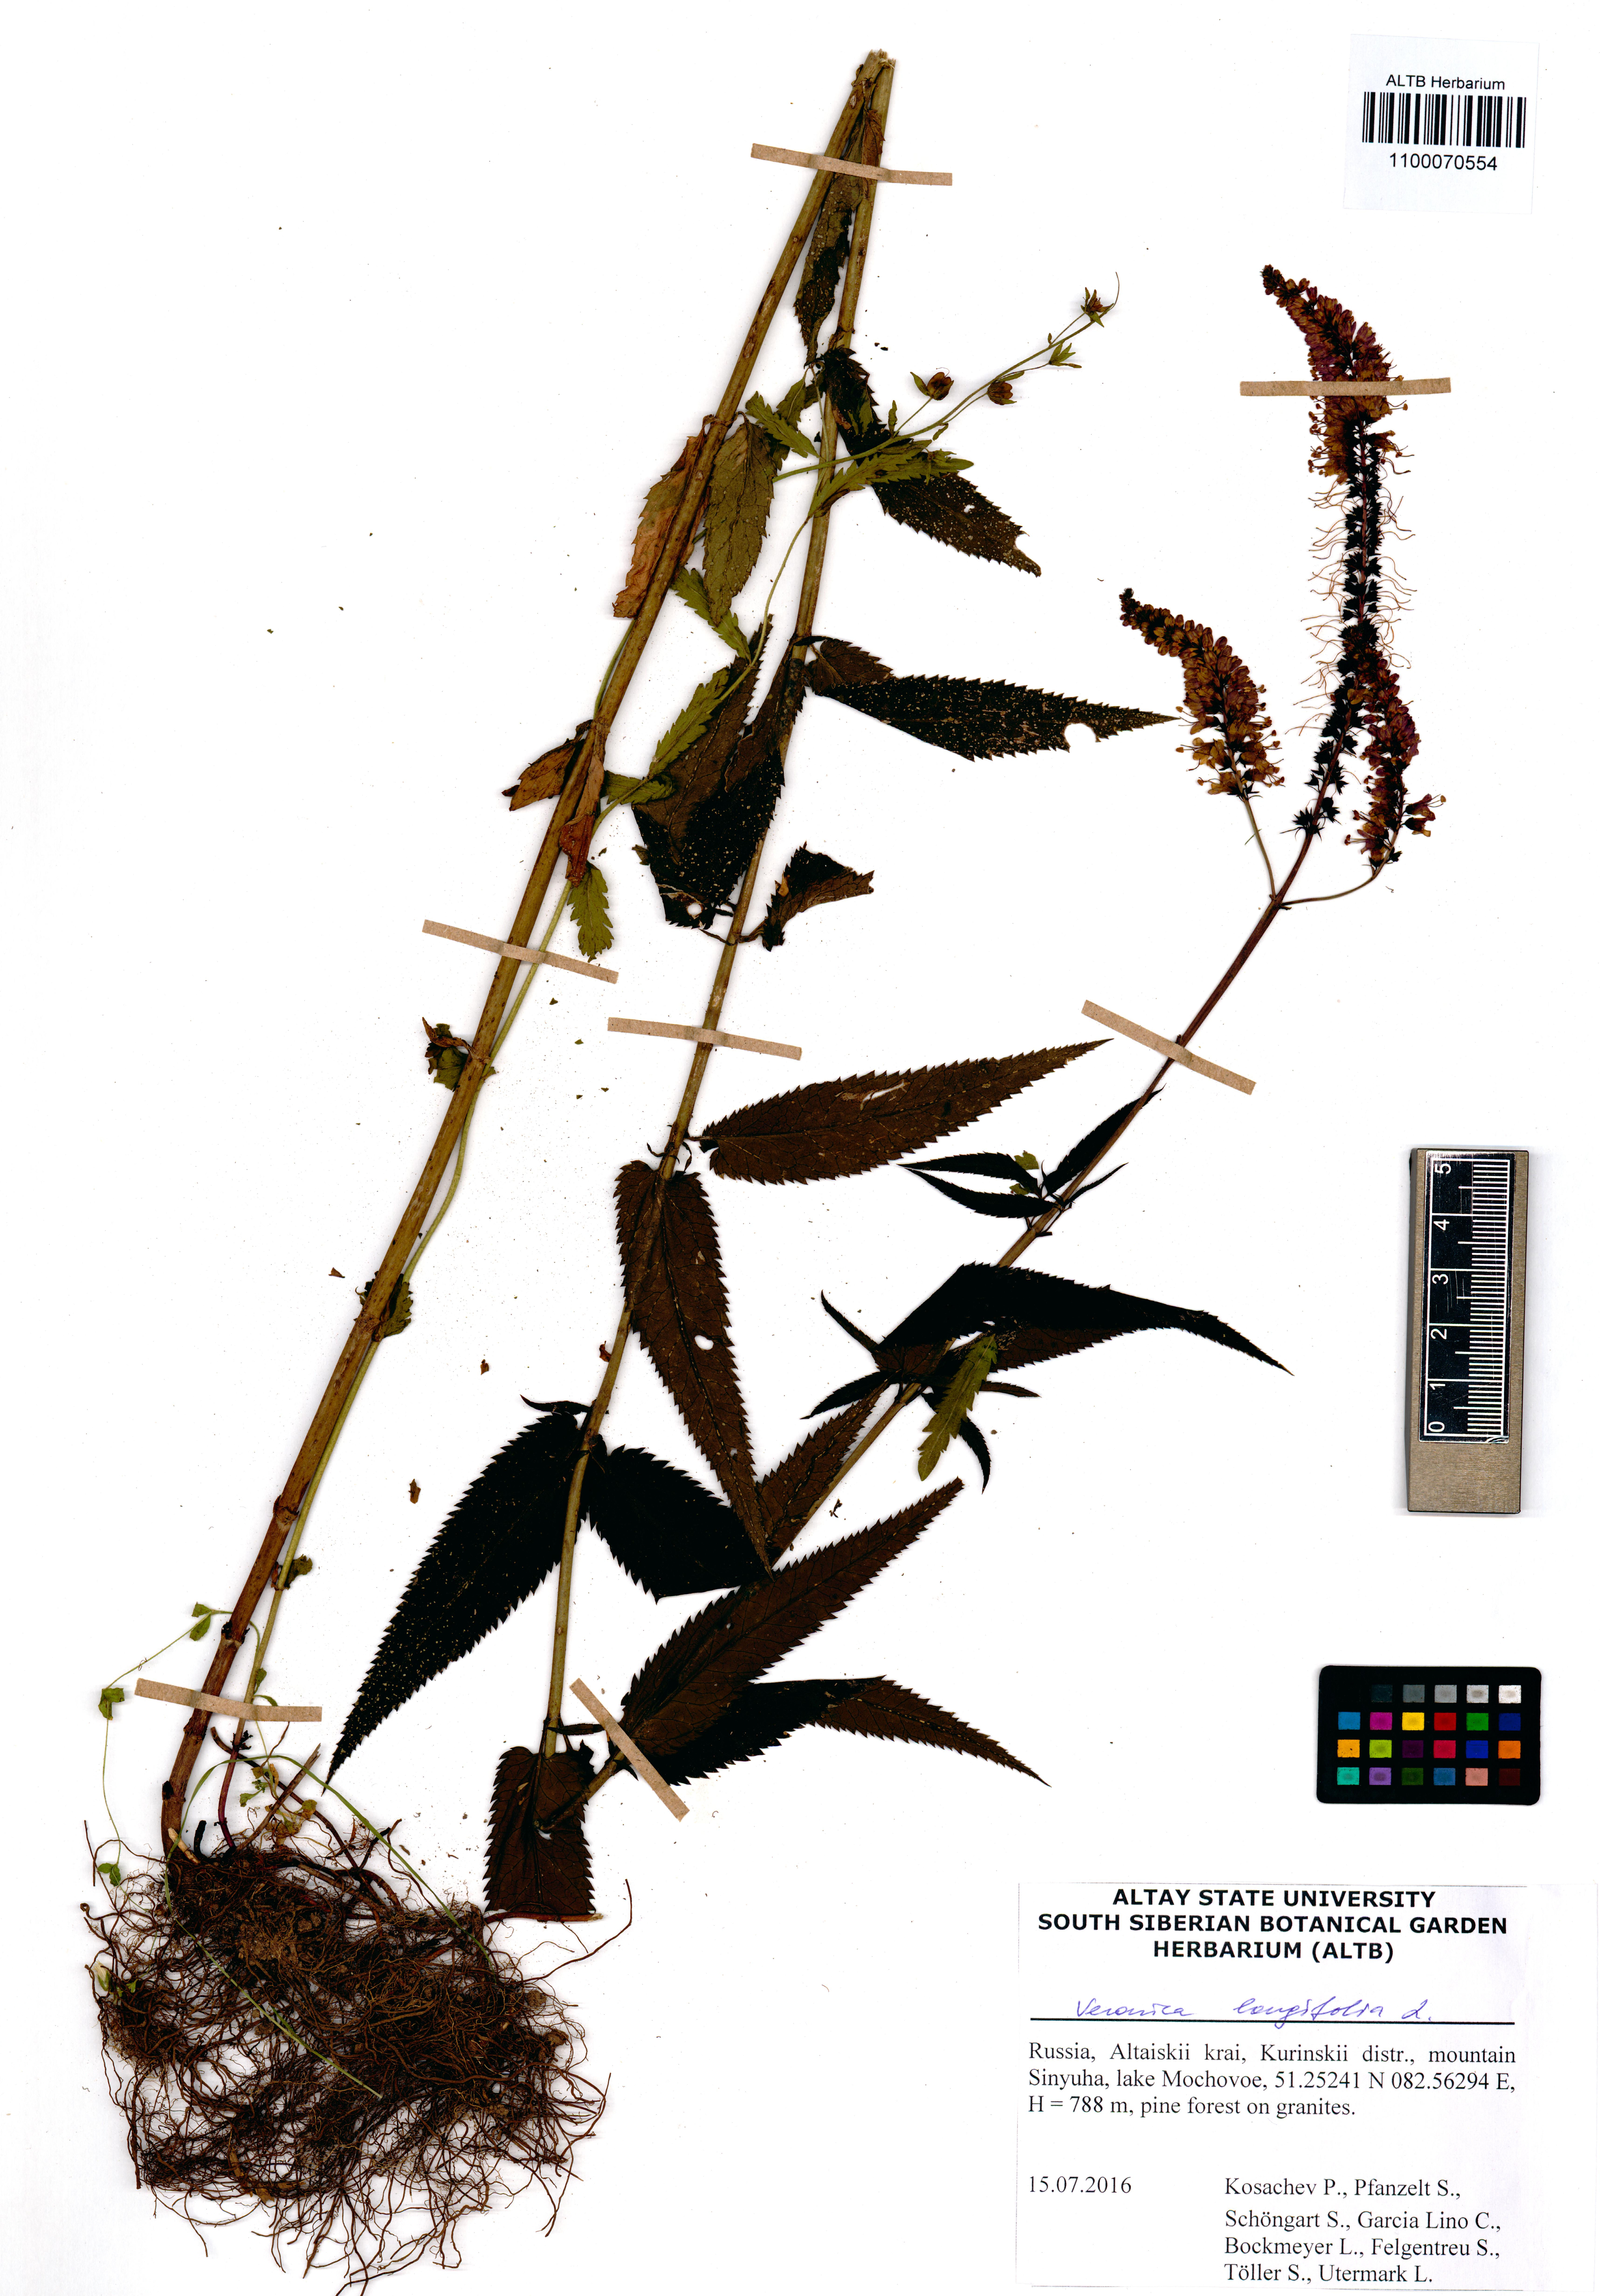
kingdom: Plantae
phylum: Tracheophyta
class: Magnoliopsida
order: Lamiales
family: Plantaginaceae
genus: Veronica
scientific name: Veronica longifolia
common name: Garden speedwell
